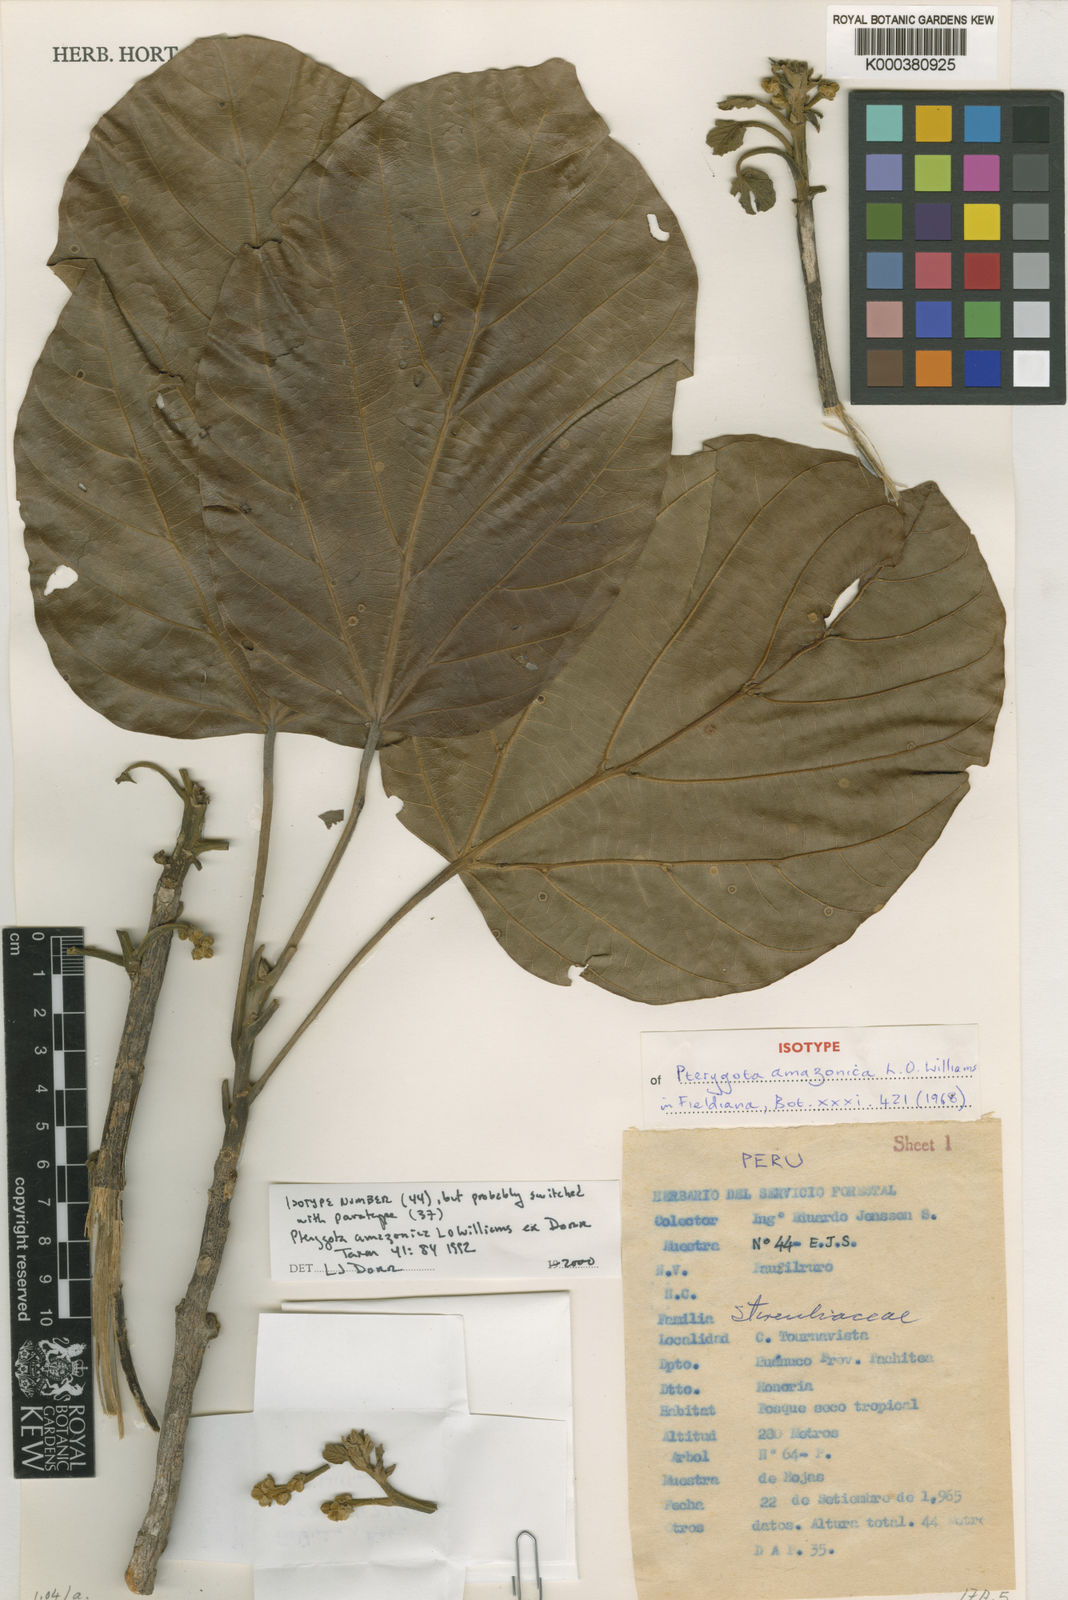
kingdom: Plantae
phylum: Tracheophyta
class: Magnoliopsida
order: Malvales
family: Malvaceae
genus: Pterygota
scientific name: Pterygota amazonica
